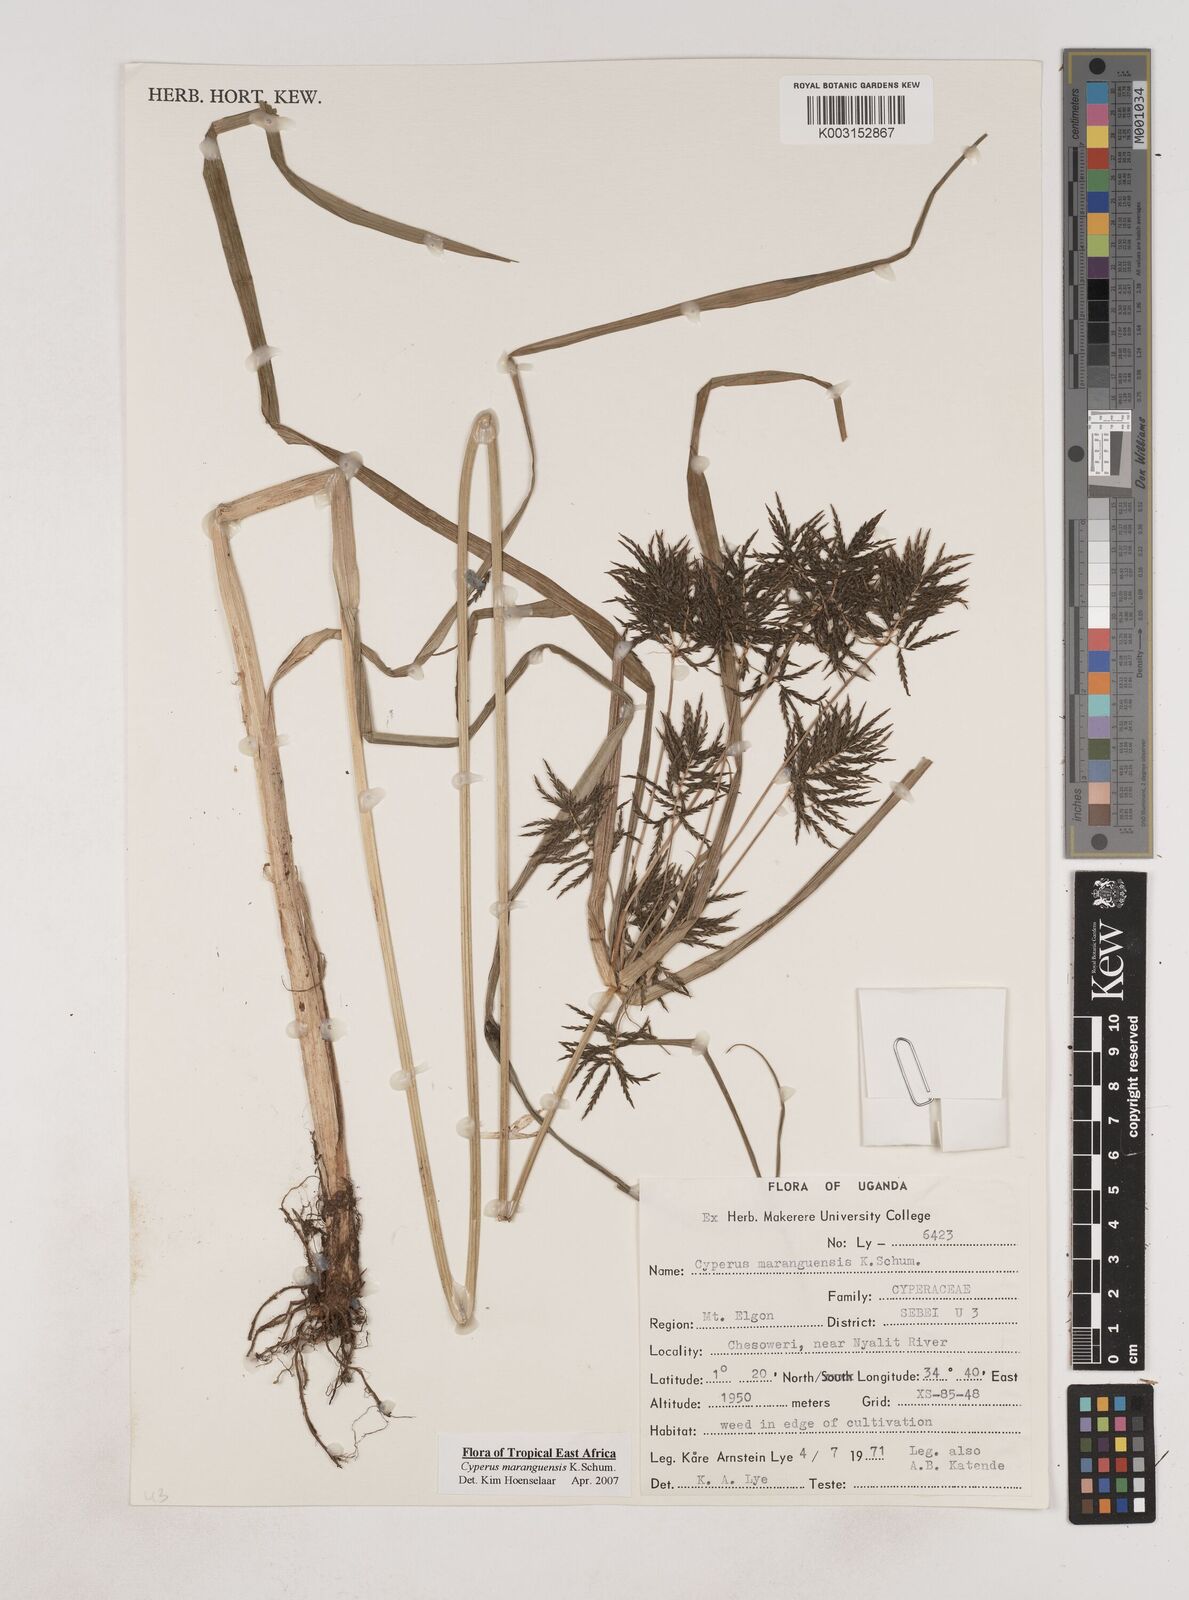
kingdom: Plantae
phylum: Tracheophyta
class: Liliopsida
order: Poales
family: Cyperaceae
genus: Cyperus
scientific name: Cyperus maranguensis
